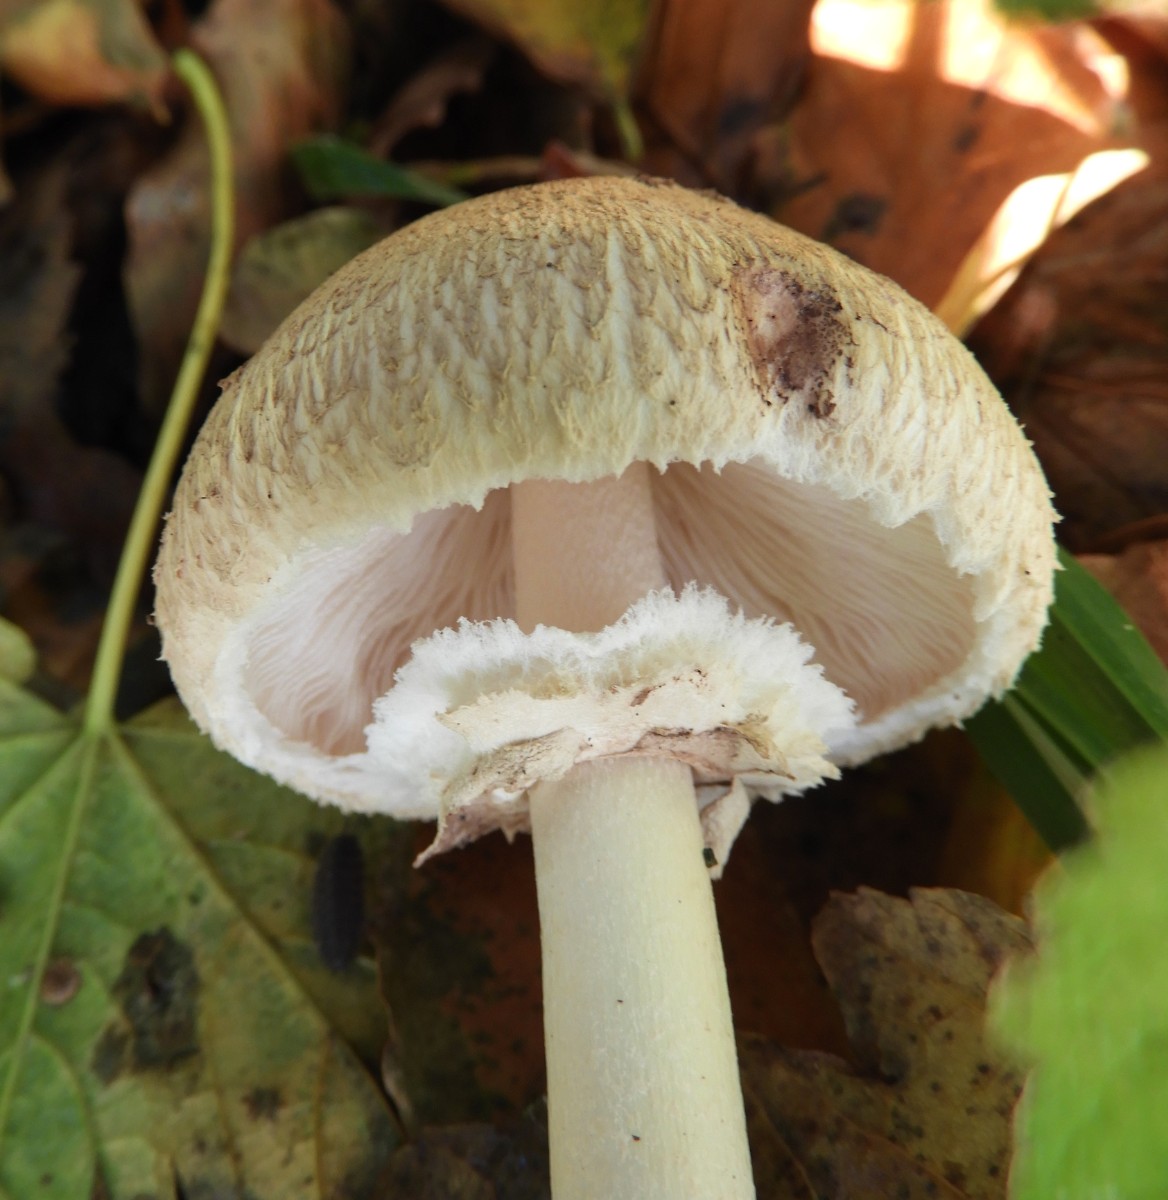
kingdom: Fungi
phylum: Basidiomycota
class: Agaricomycetes
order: Agaricales
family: Agaricaceae
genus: Chlorophyllum
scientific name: Chlorophyllum olivieri
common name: almindelig rabarberhat
